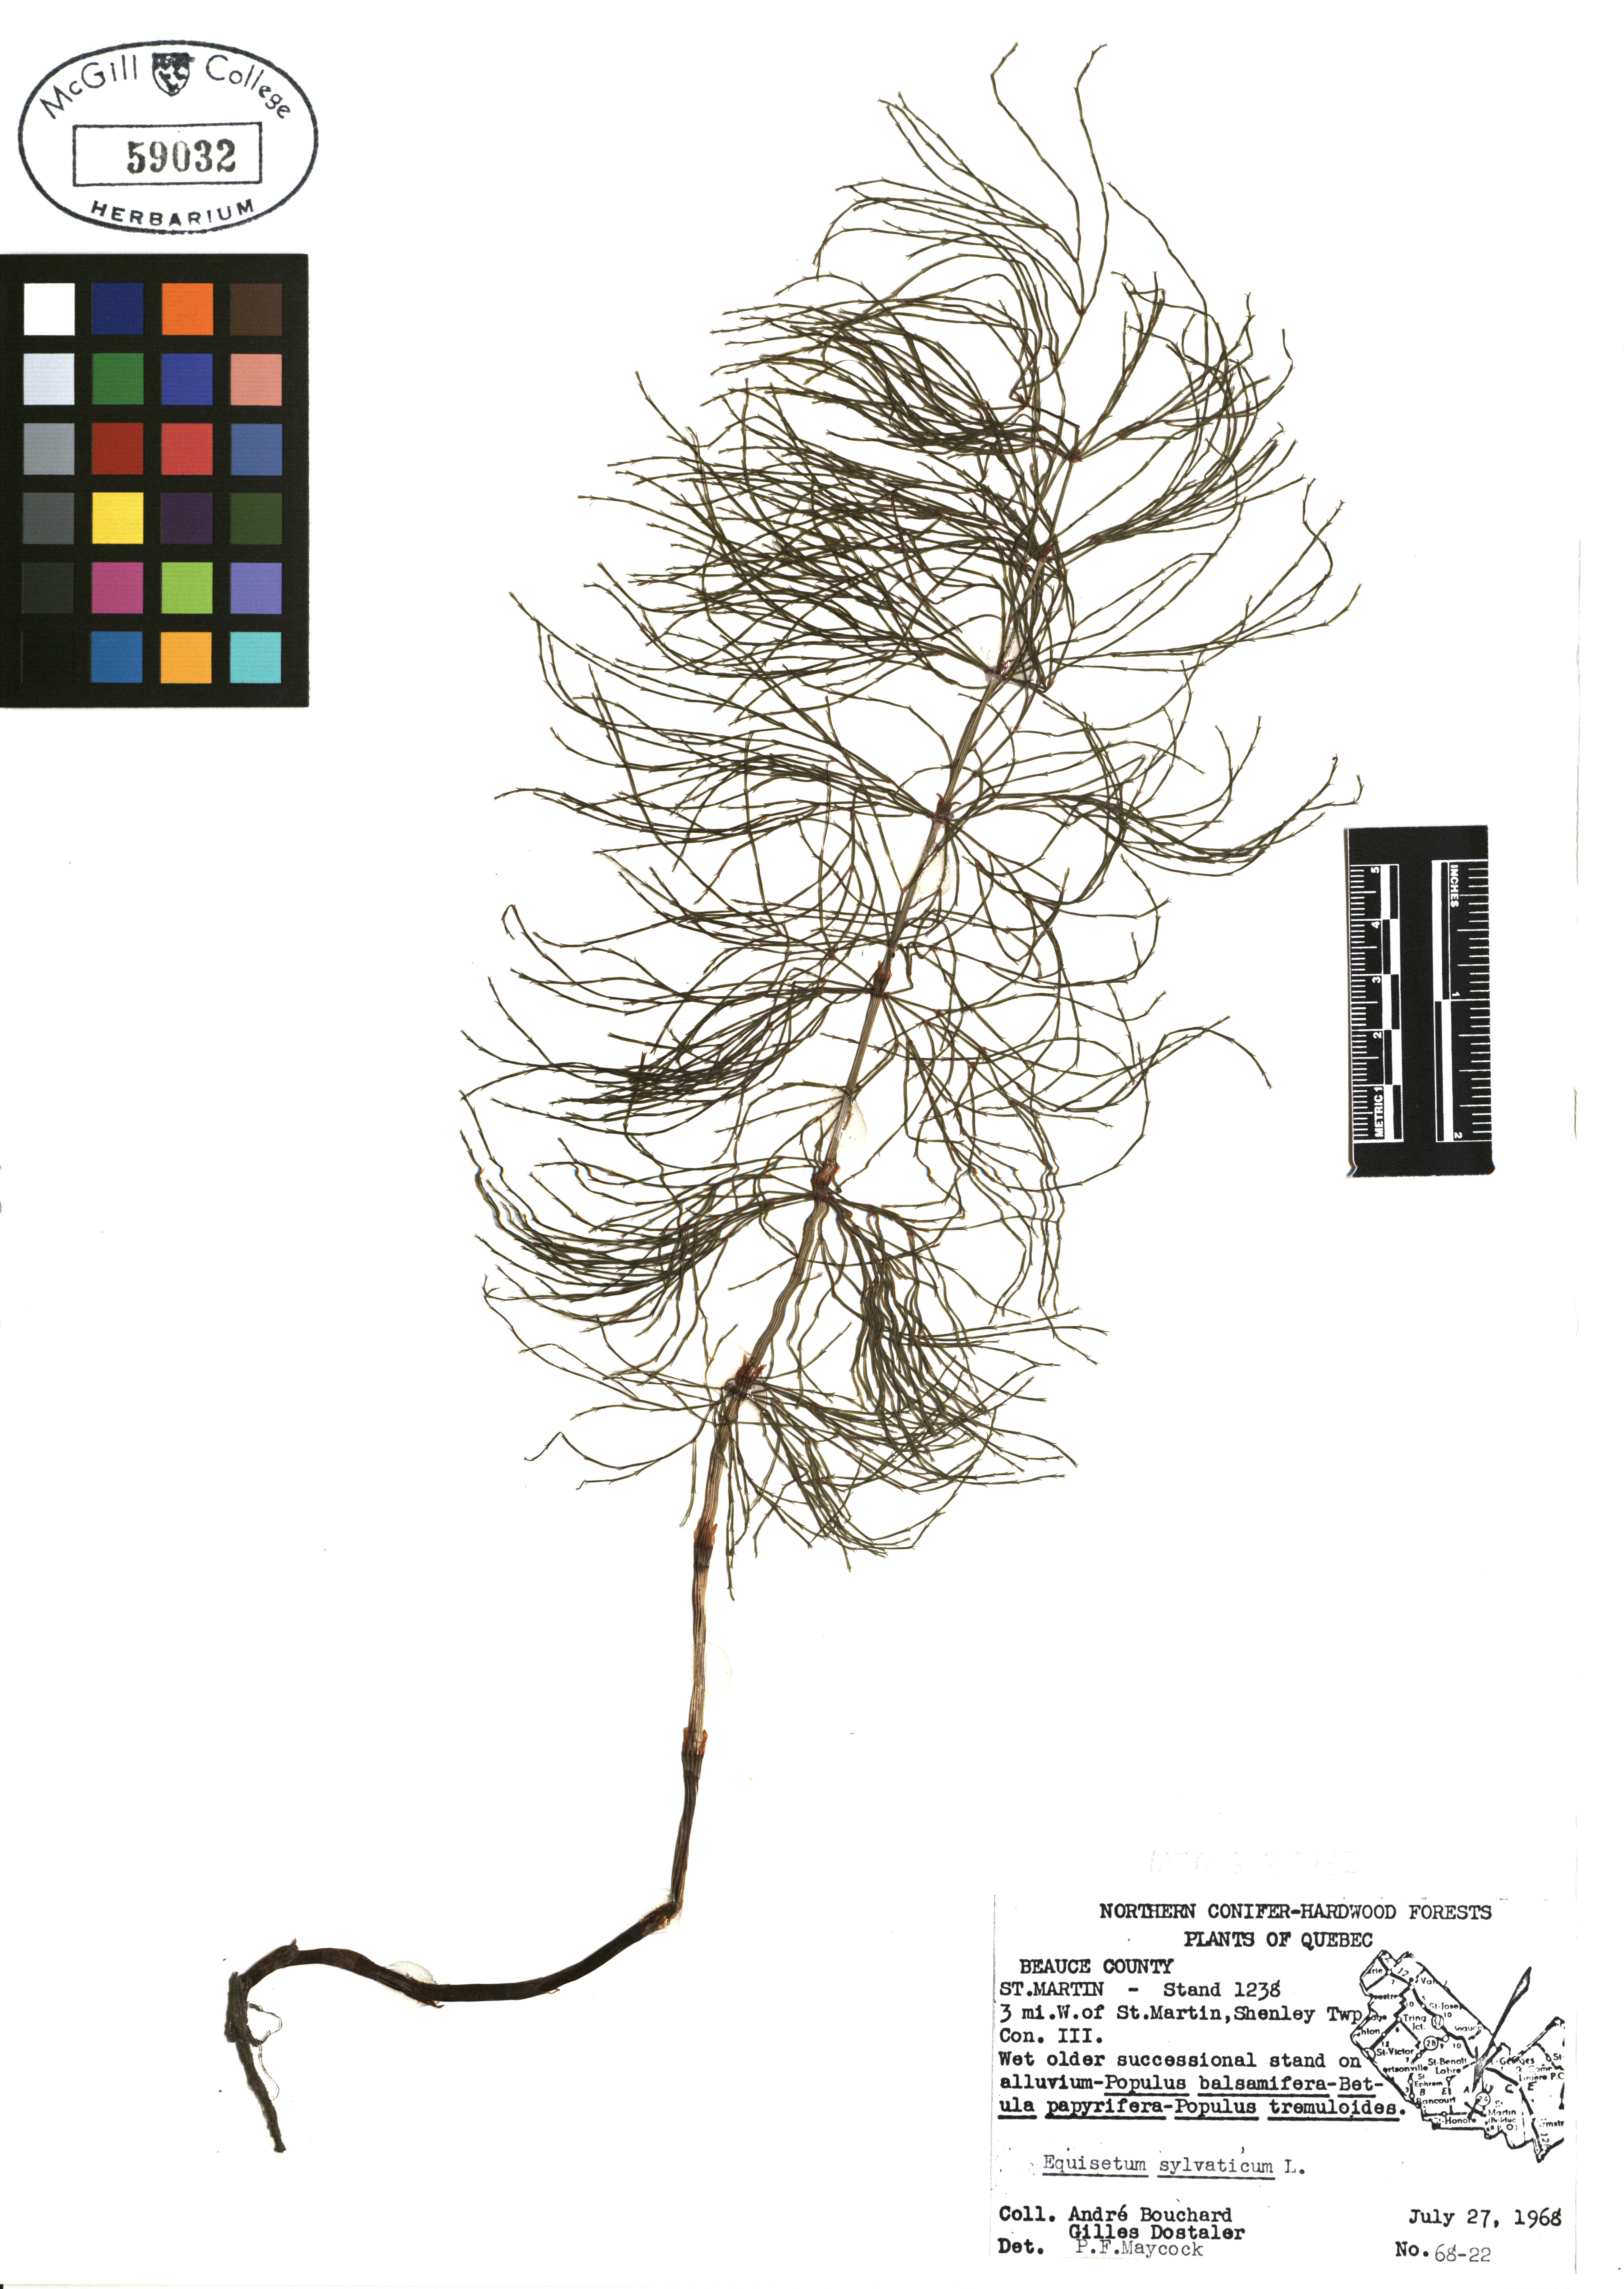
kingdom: Plantae
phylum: Tracheophyta
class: Polypodiopsida
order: Equisetales
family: Equisetaceae
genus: Equisetum
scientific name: Equisetum sylvaticum
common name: Wood horsetail
